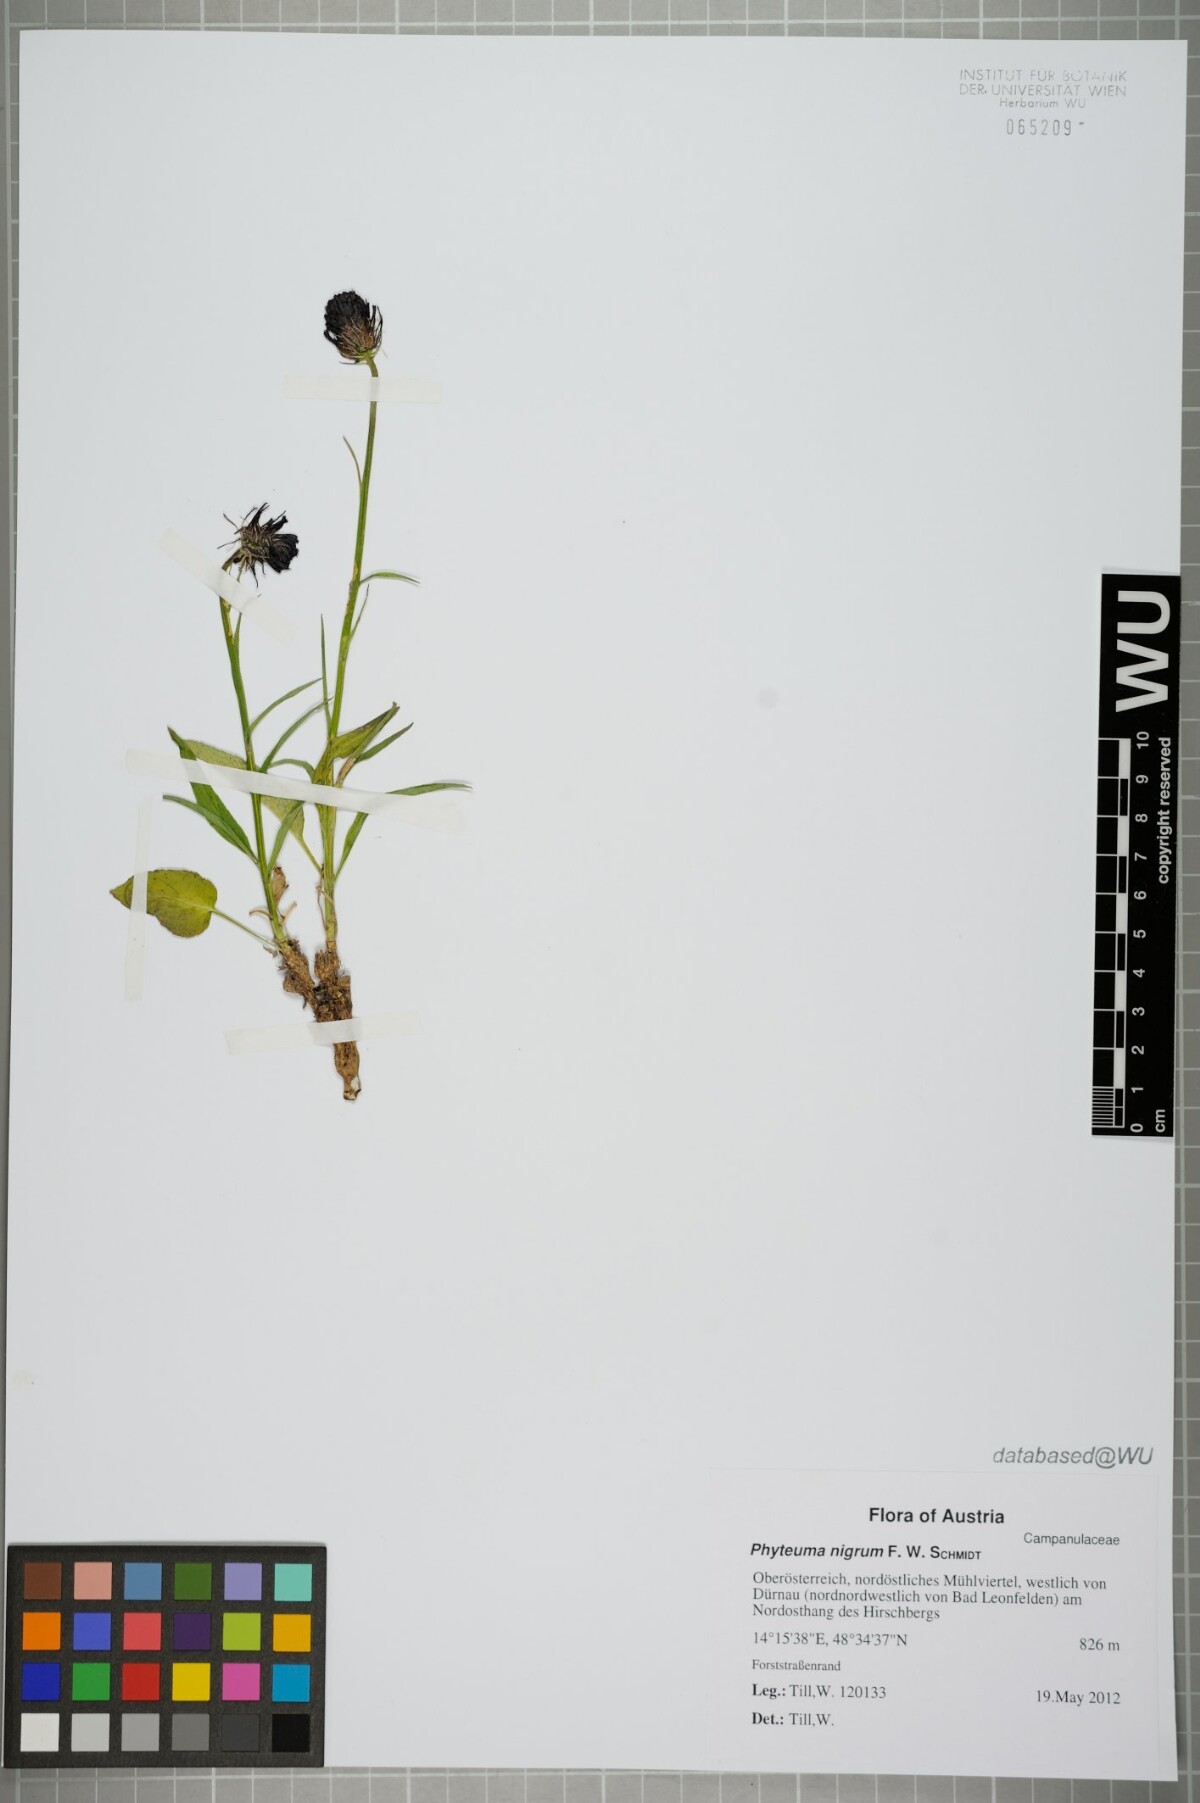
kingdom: Plantae
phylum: Tracheophyta
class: Magnoliopsida
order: Asterales
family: Campanulaceae
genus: Phyteuma
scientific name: Phyteuma nigrum
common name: Black rampion
